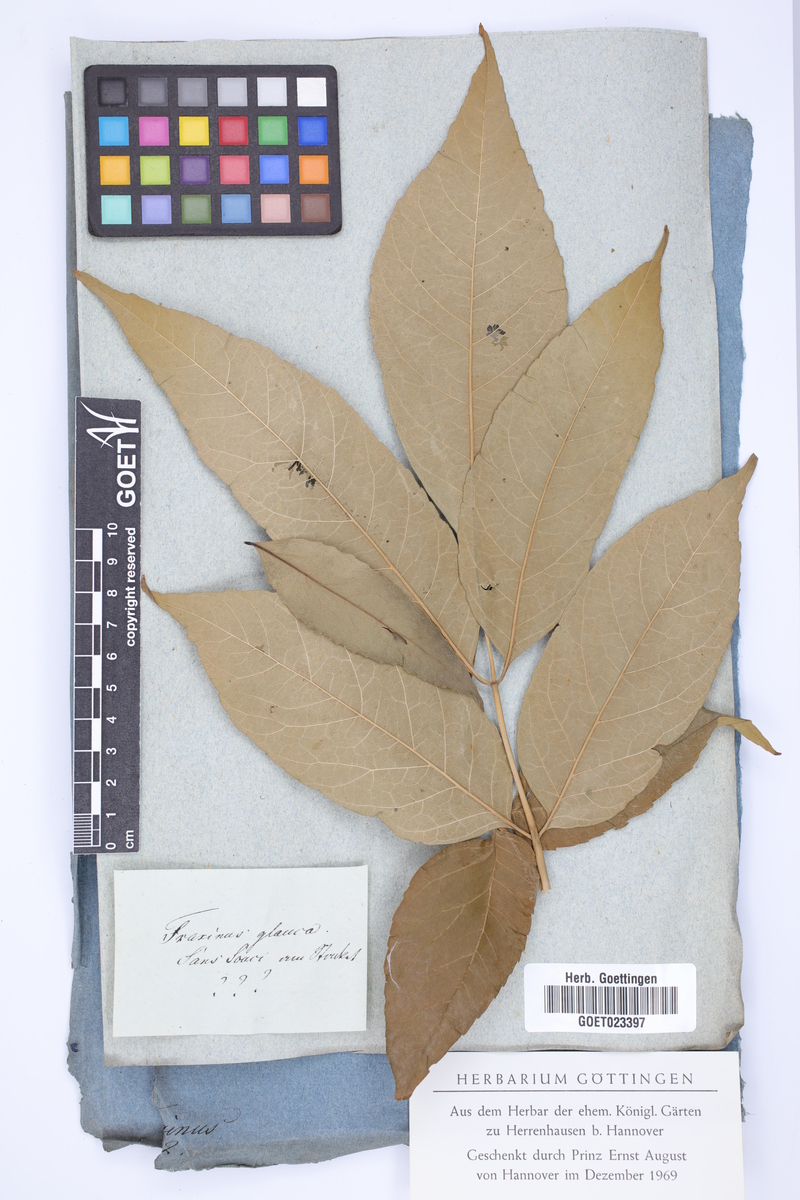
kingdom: Plantae
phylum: Tracheophyta
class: Magnoliopsida
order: Lamiales
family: Oleaceae
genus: Fraxinus
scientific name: Fraxinus americana
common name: White ash
